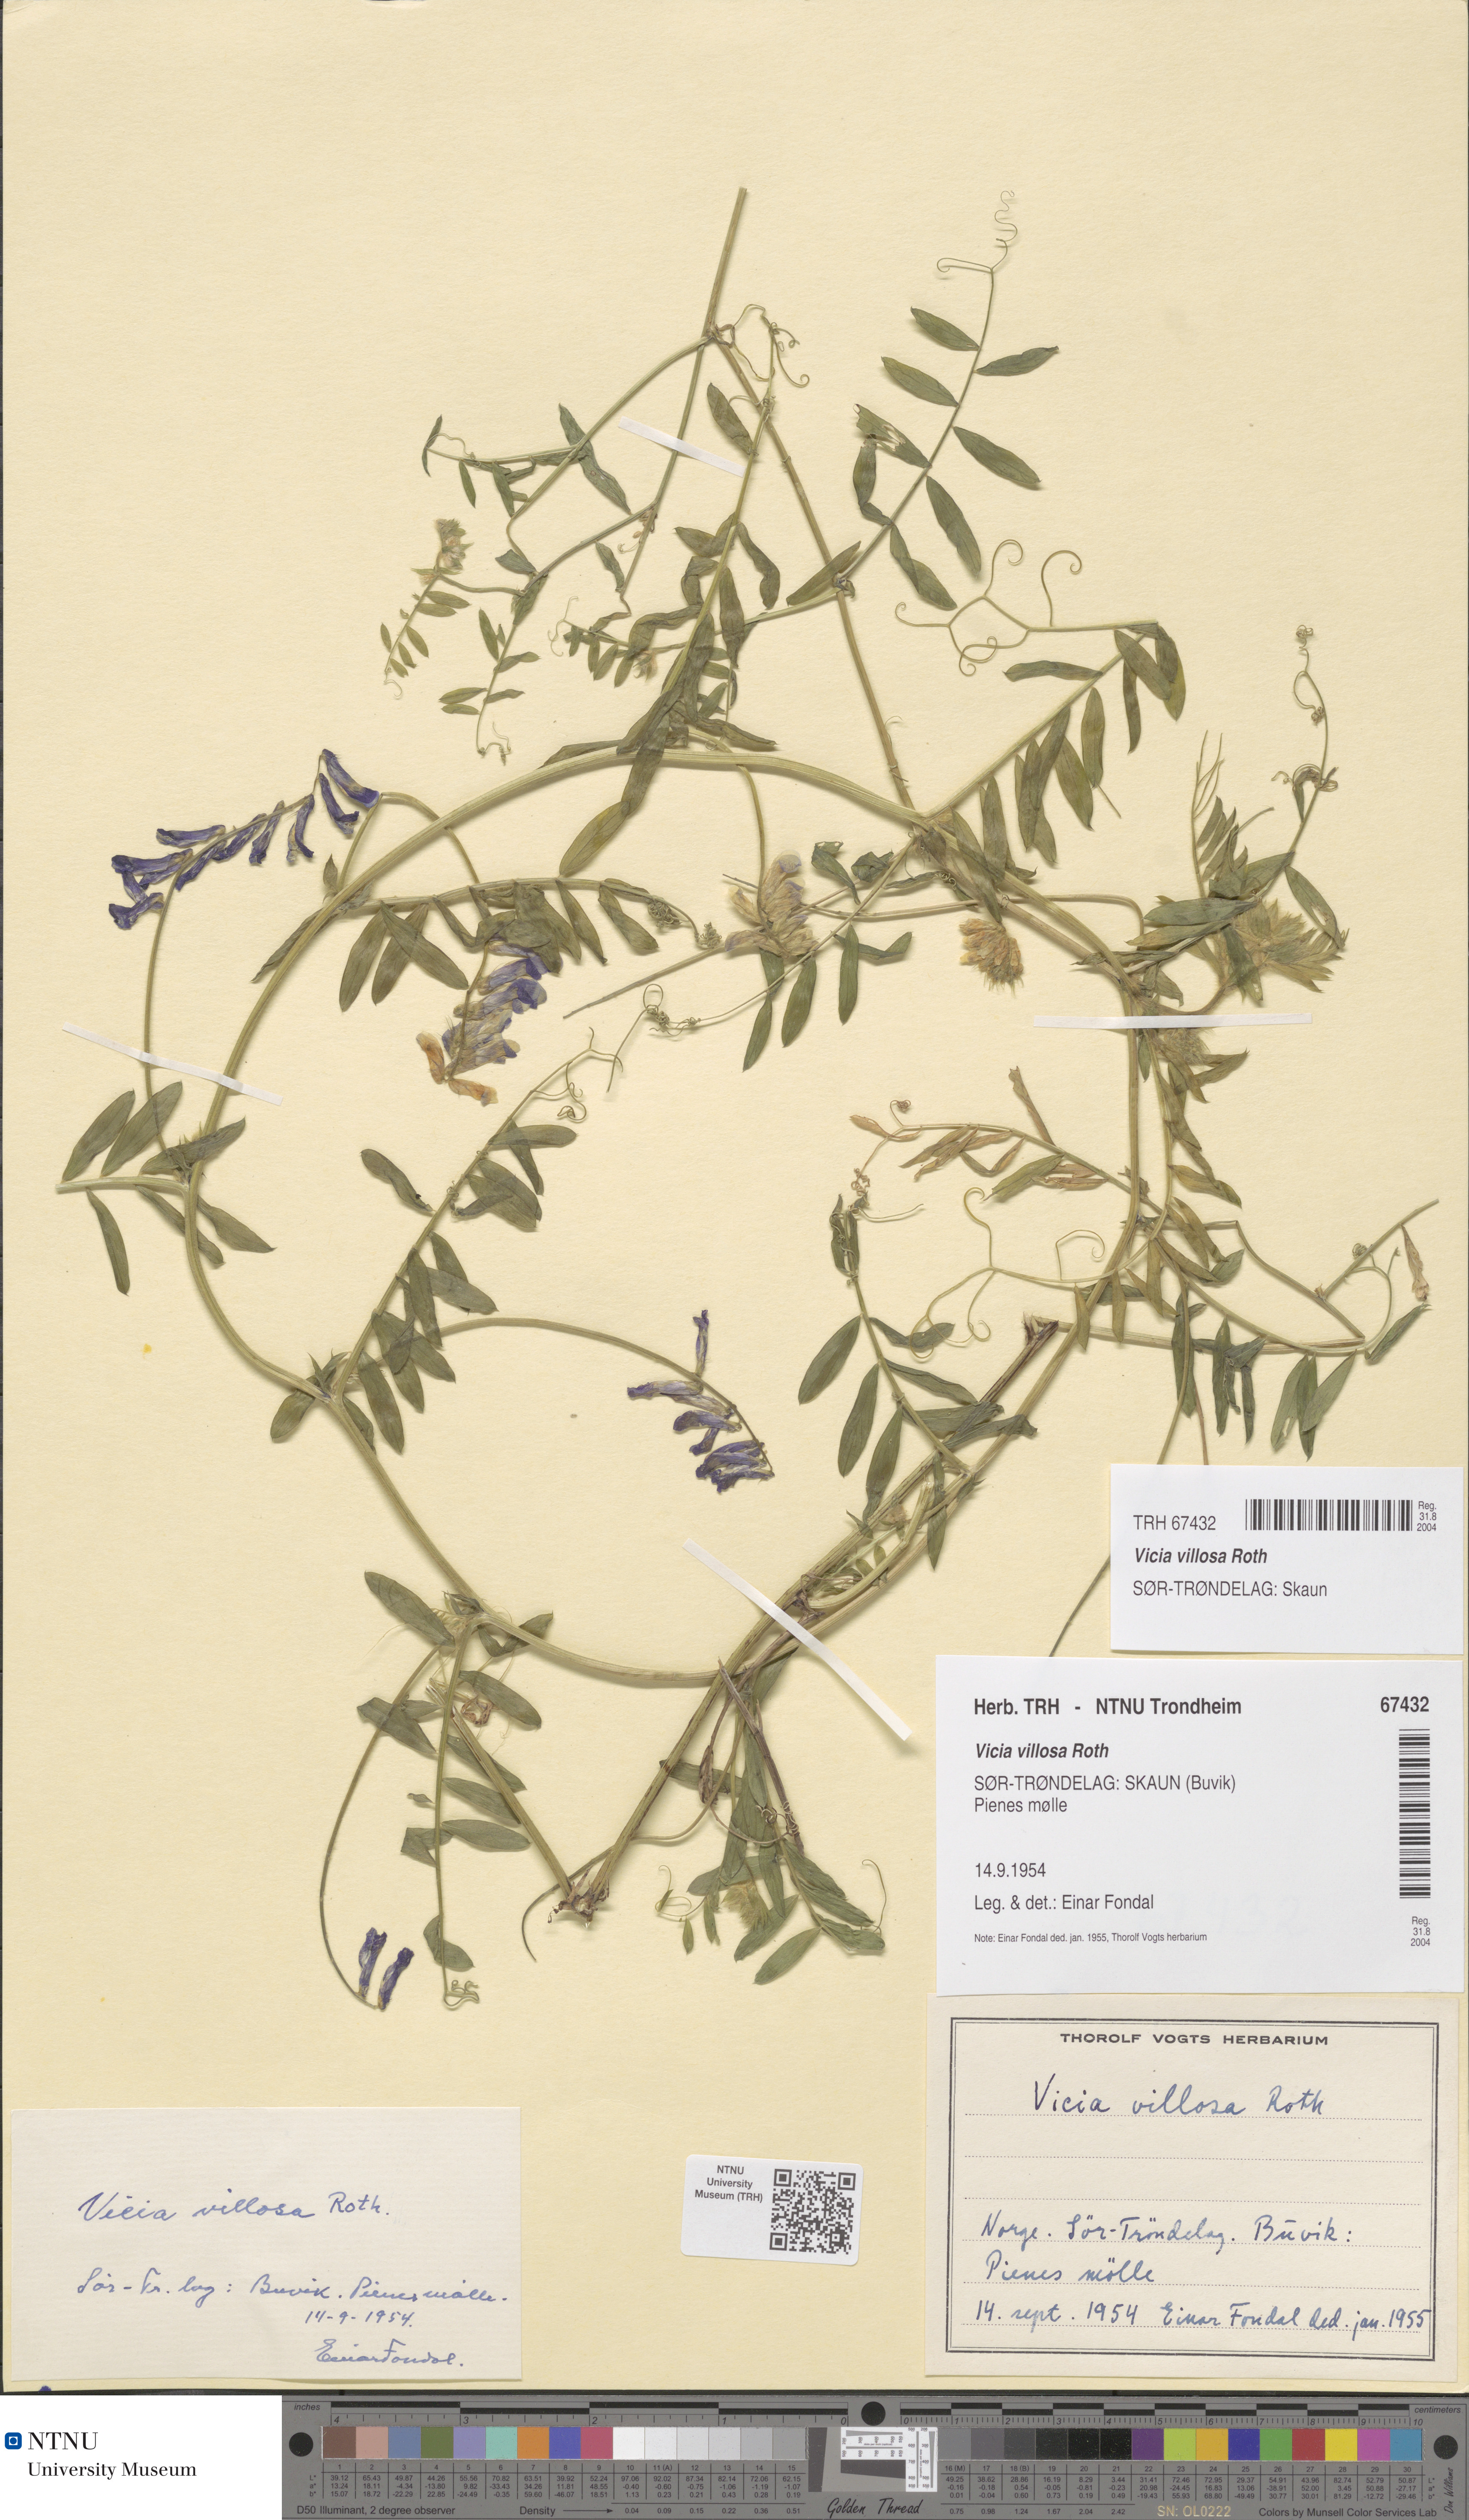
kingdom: Plantae
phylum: Tracheophyta
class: Magnoliopsida
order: Fabales
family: Fabaceae
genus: Vicia
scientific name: Vicia villosa
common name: Fodder vetch
